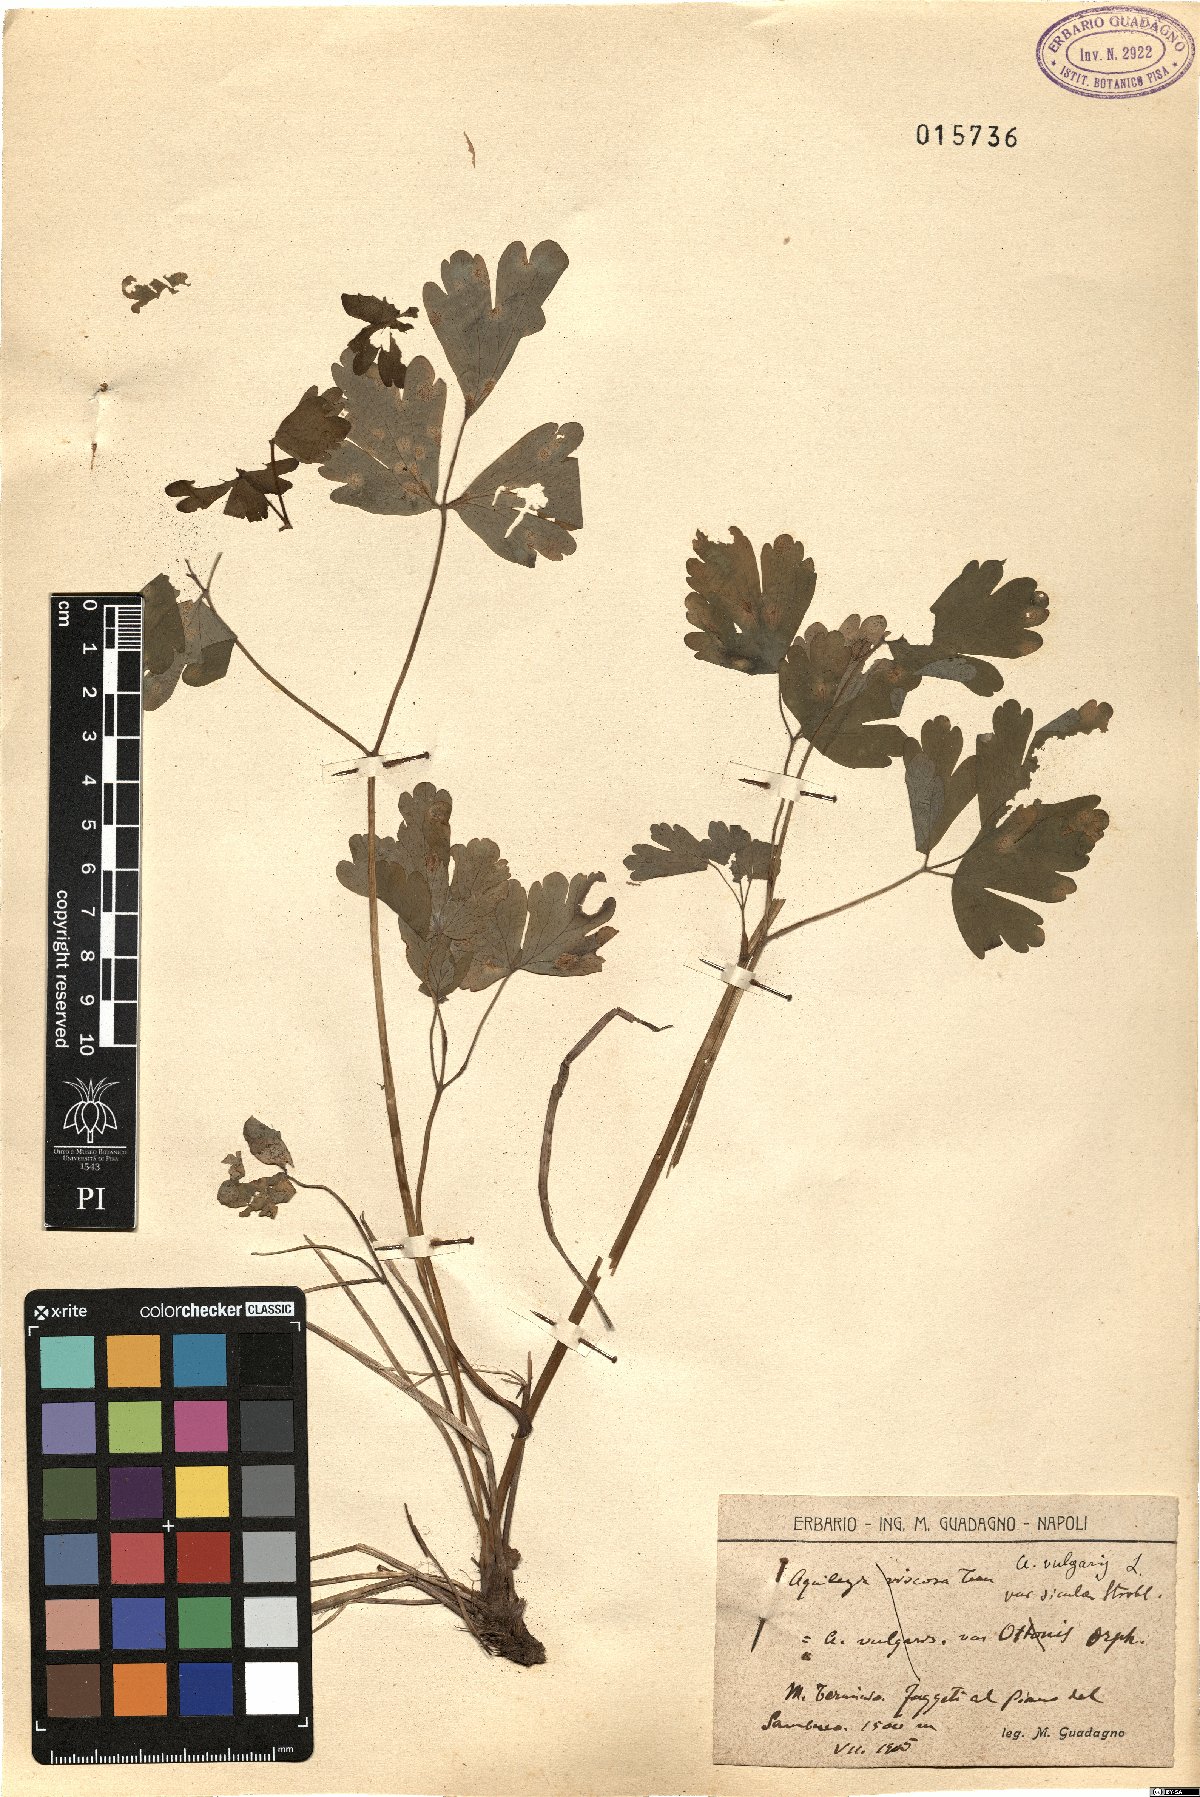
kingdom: Plantae
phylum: Tracheophyta
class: Magnoliopsida
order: Ranunculales
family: Ranunculaceae
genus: Aquilegia
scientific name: Aquilegia dumeticola
